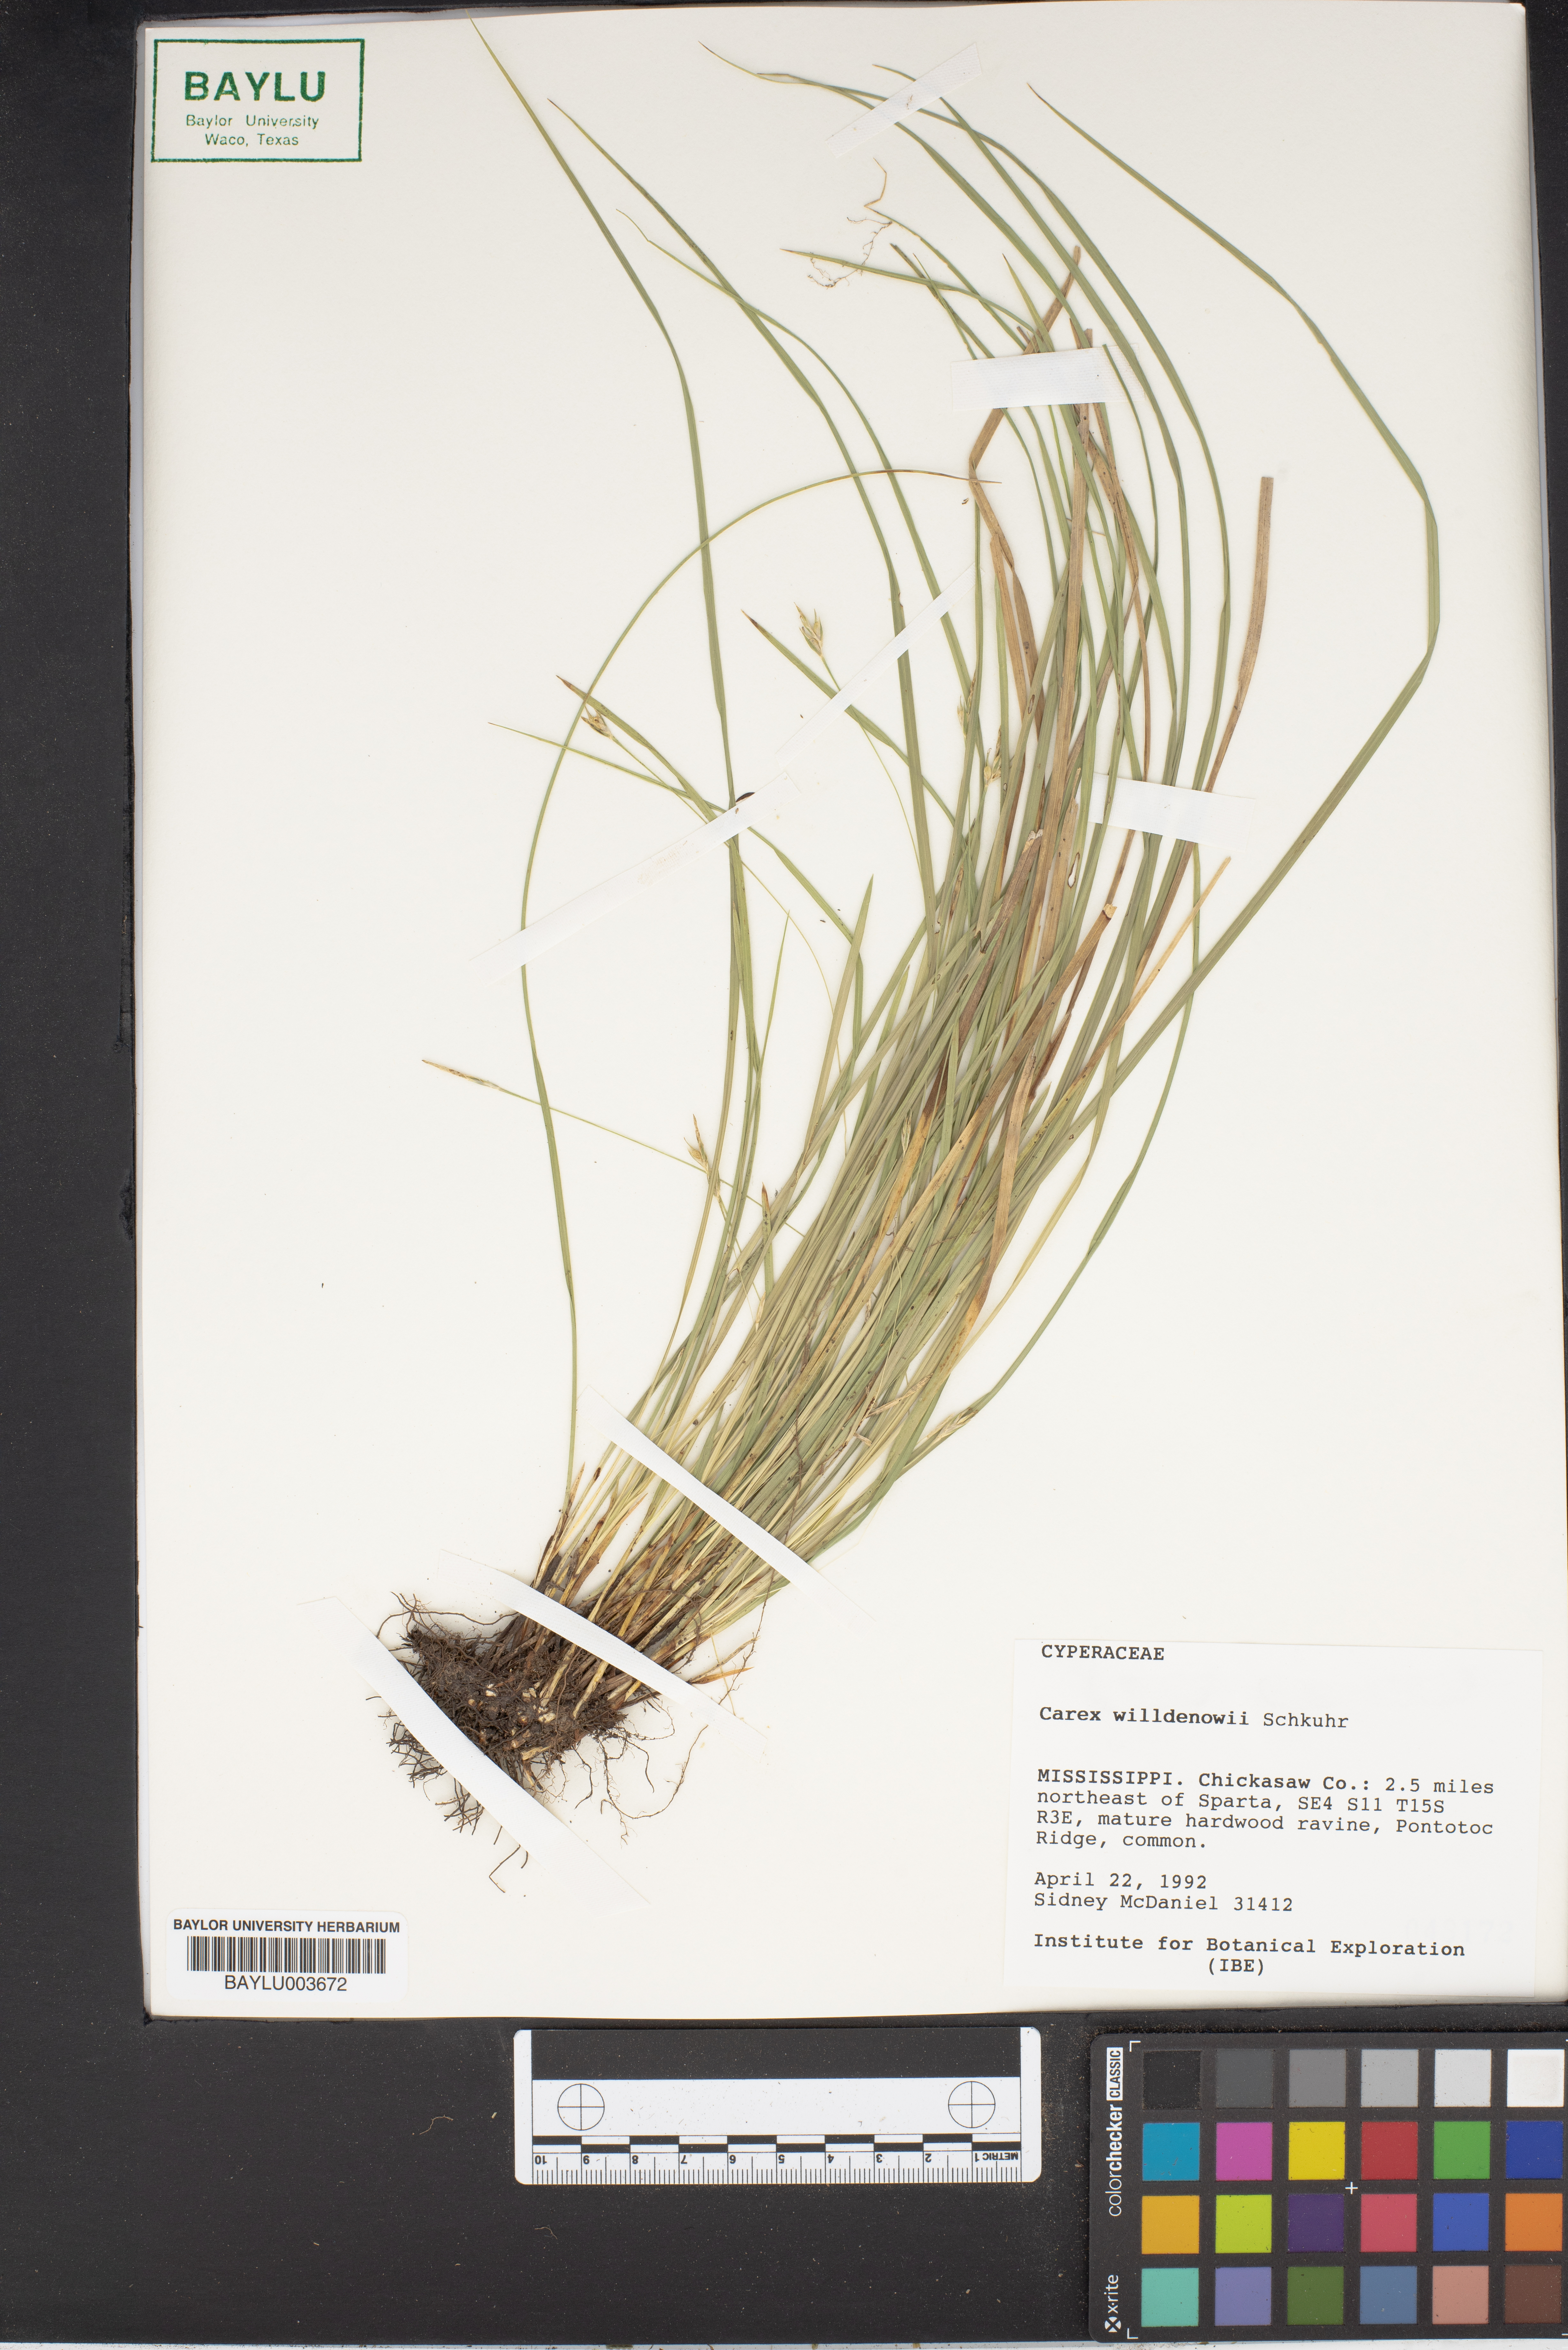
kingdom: Plantae
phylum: Tracheophyta
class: Liliopsida
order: Poales
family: Cyperaceae
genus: Carex
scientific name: Carex willdenowii
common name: Willdenow's sedge
